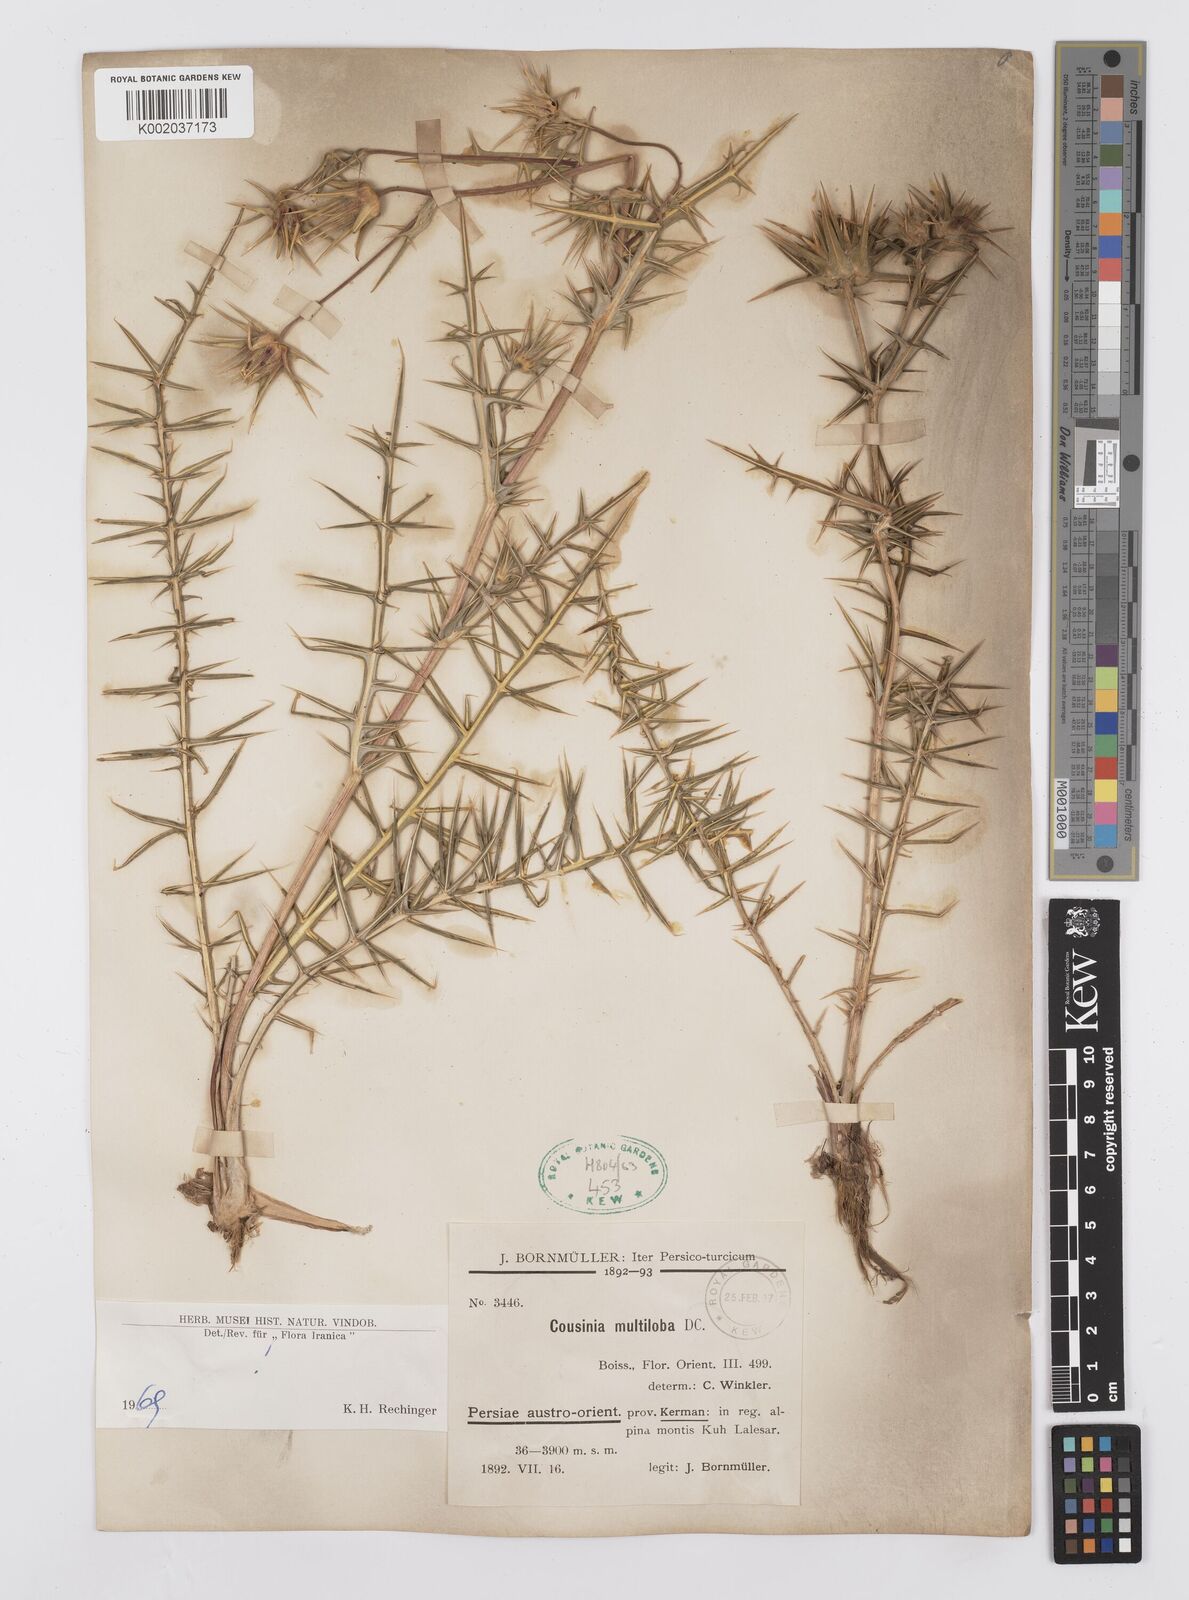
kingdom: Plantae
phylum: Tracheophyta
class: Magnoliopsida
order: Asterales
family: Asteraceae
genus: Cousinia
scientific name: Cousinia multiloba
